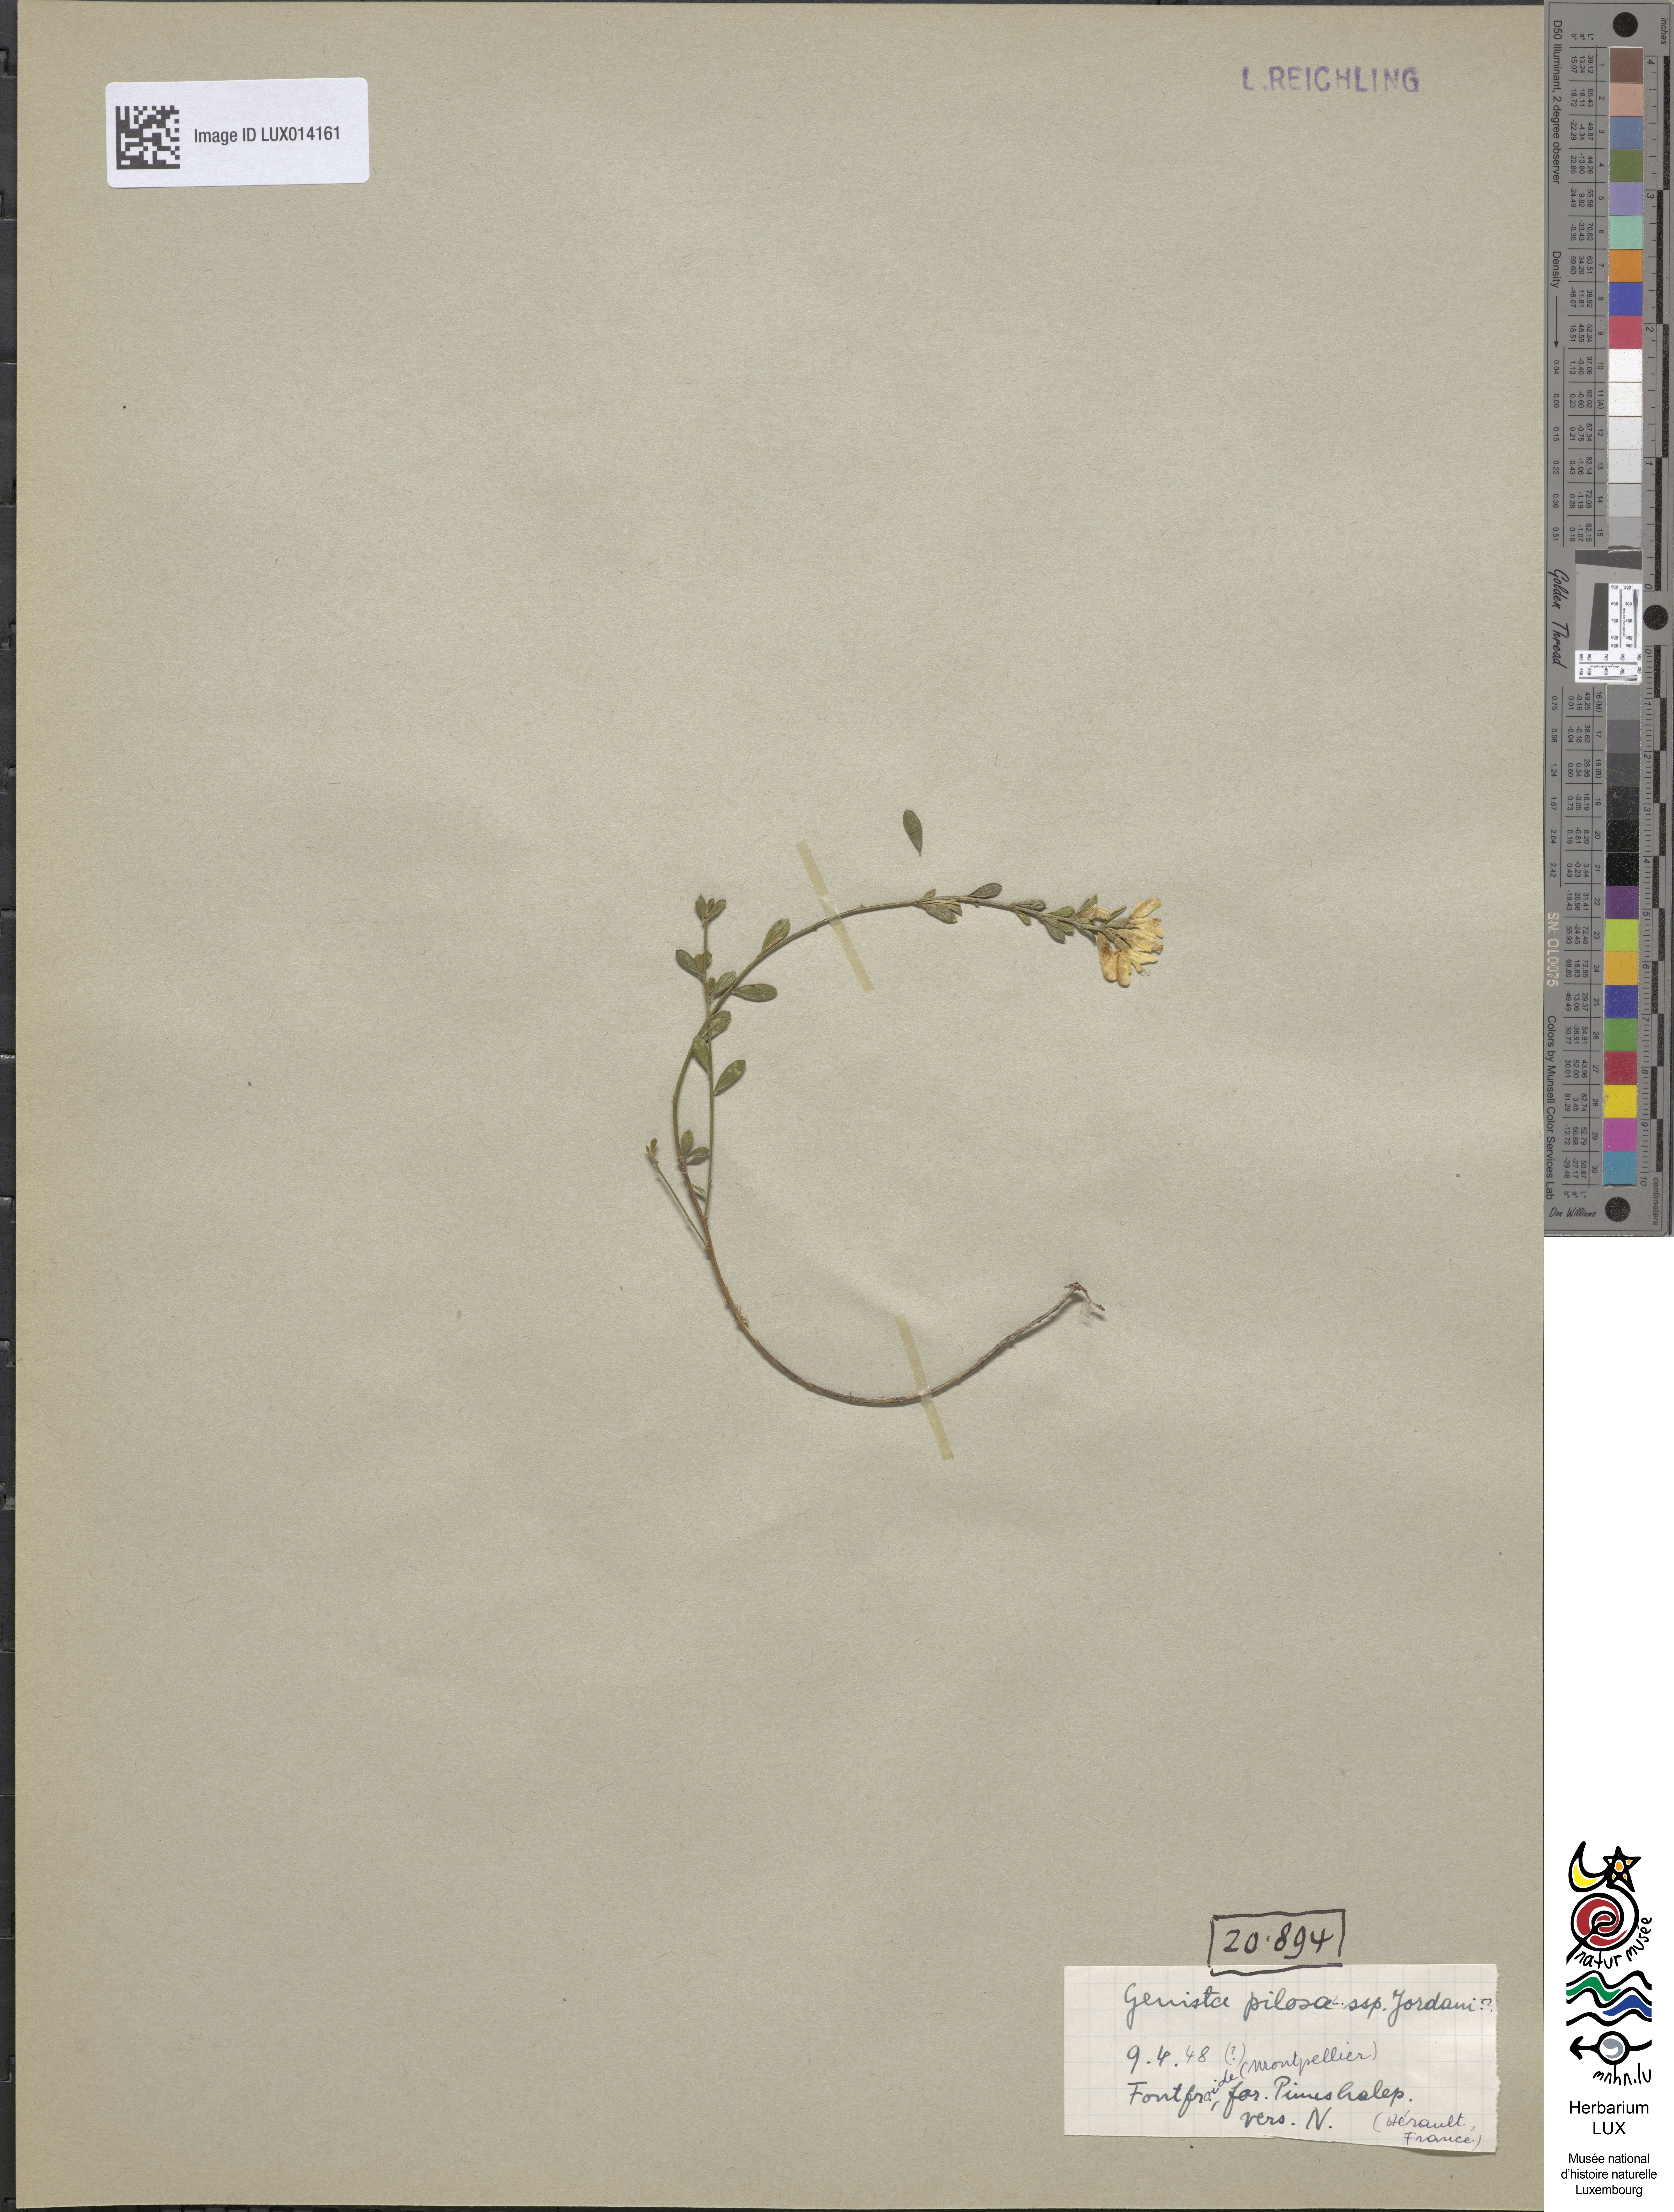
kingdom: Plantae
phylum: Tracheophyta
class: Magnoliopsida
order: Fabales
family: Fabaceae
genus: Genista
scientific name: Genista pilosa
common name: Hairy greenweed
